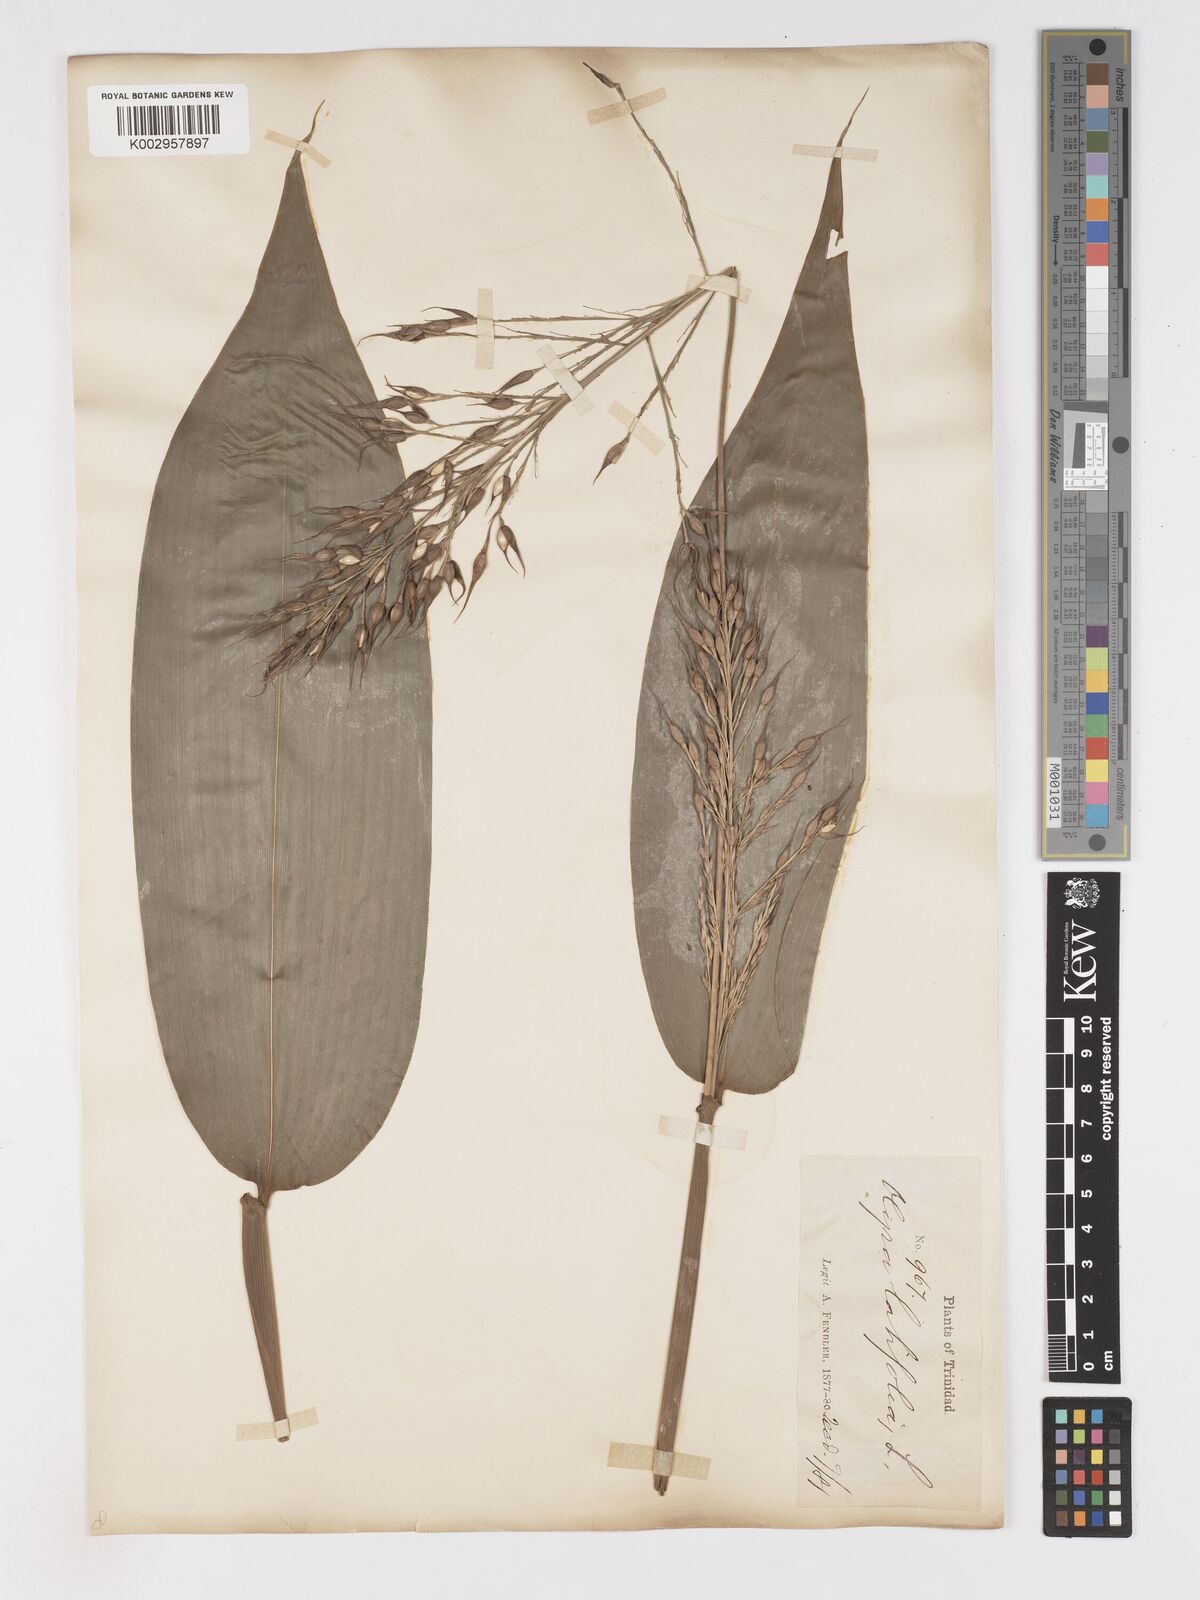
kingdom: Plantae
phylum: Tracheophyta
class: Liliopsida
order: Poales
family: Poaceae
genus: Olyra
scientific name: Olyra latifolia
